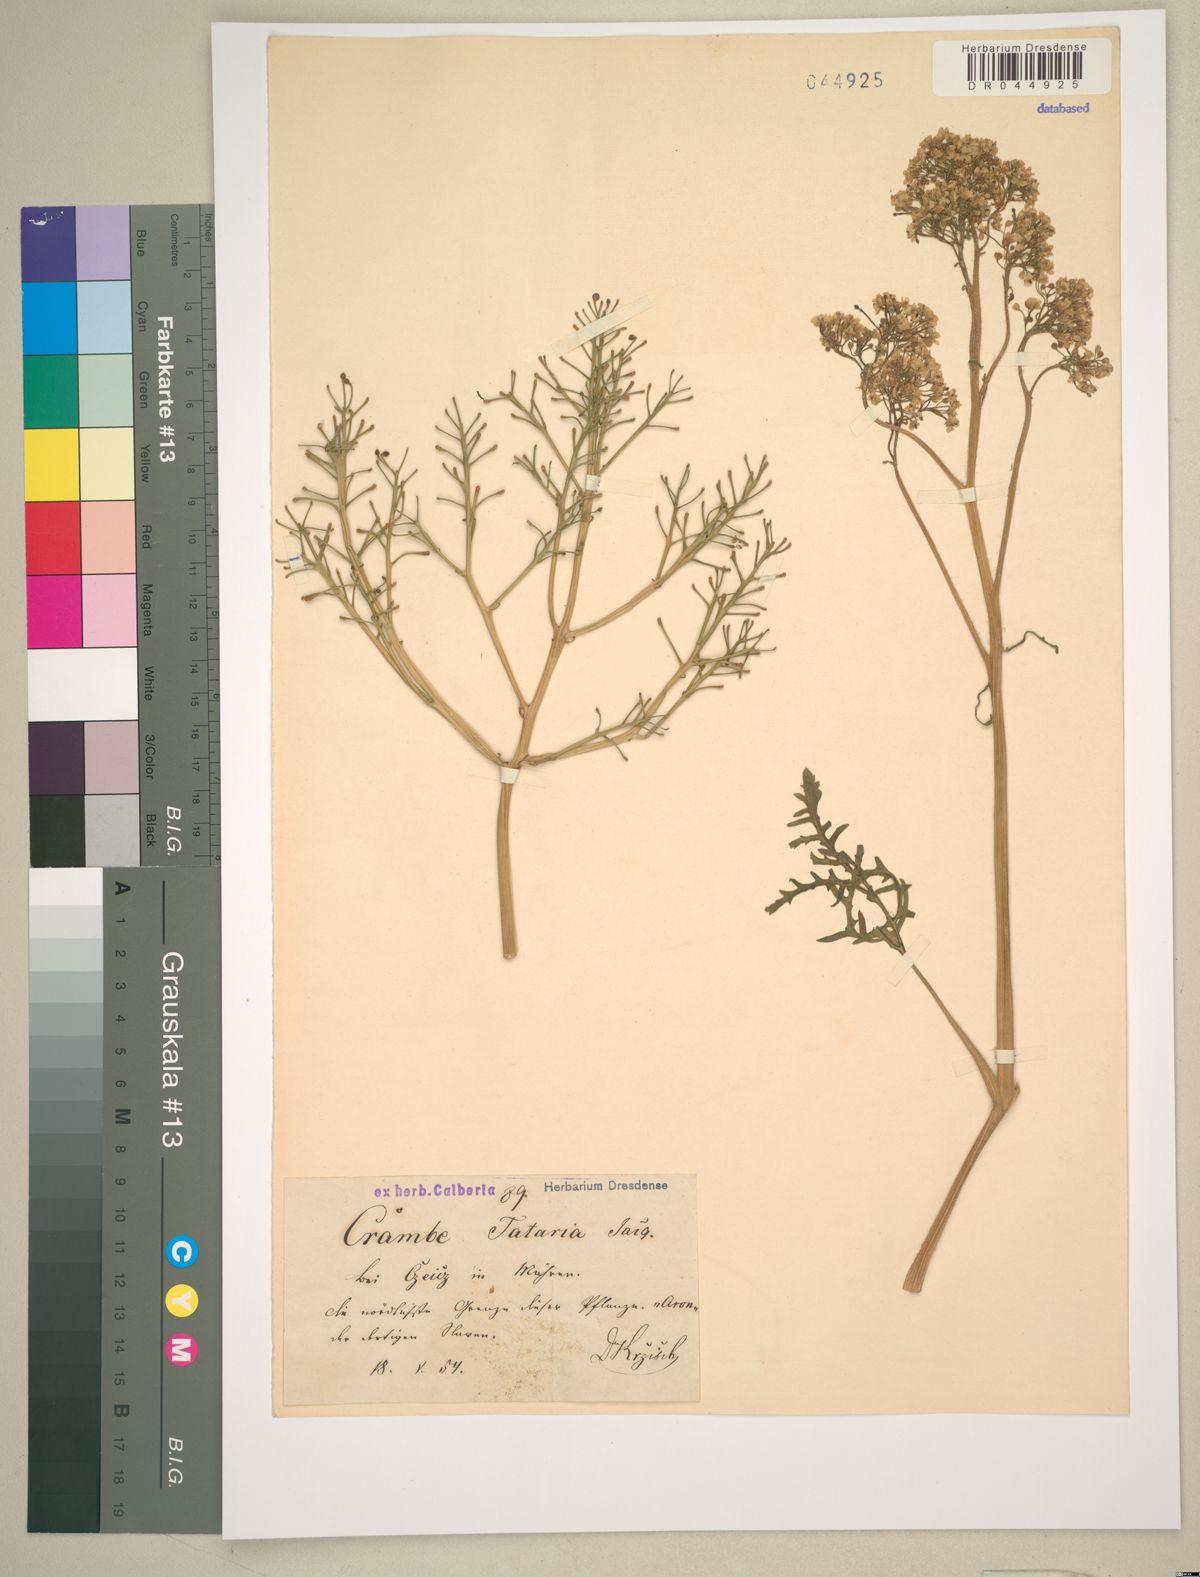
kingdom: Plantae
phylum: Tracheophyta
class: Magnoliopsida
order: Brassicales
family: Brassicaceae
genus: Crambe
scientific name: Crambe tataria
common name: Tartarian breadplant
